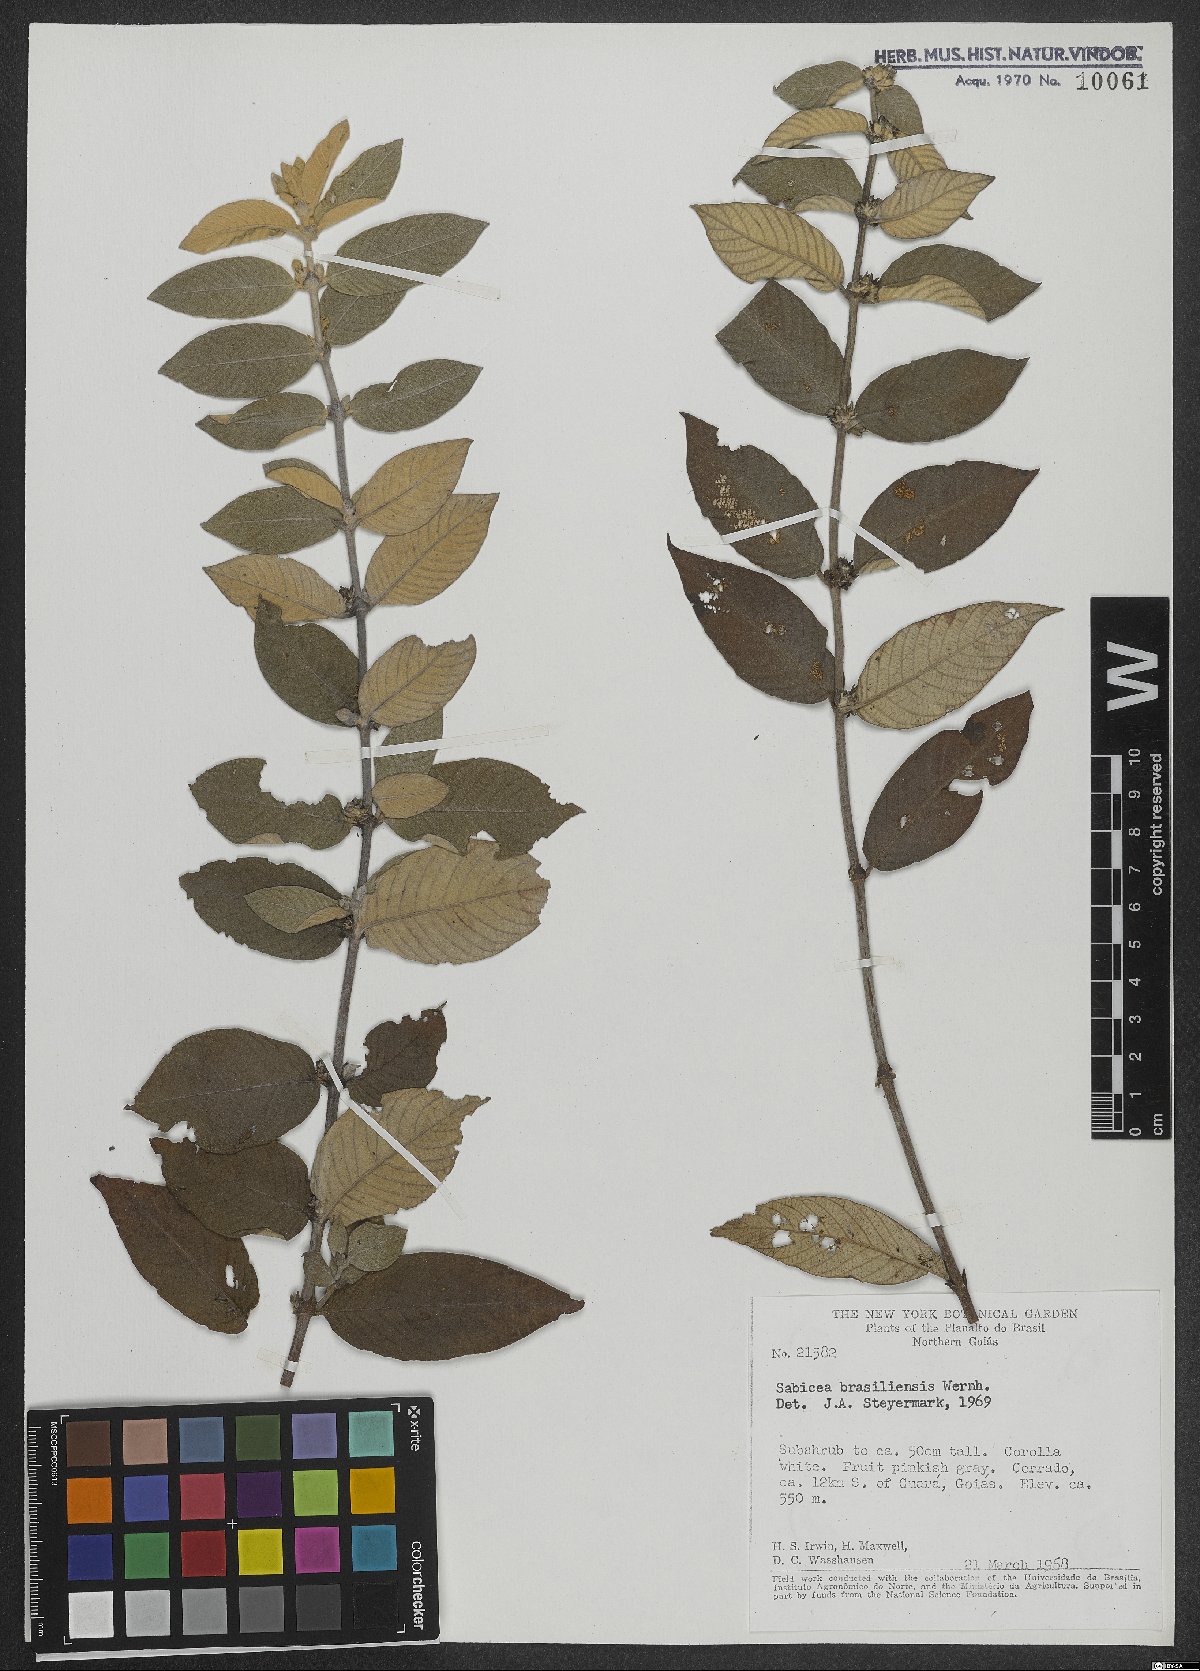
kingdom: Plantae
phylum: Tracheophyta
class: Magnoliopsida
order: Gentianales
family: Rubiaceae
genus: Sabicea
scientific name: Sabicea brasiliensis
